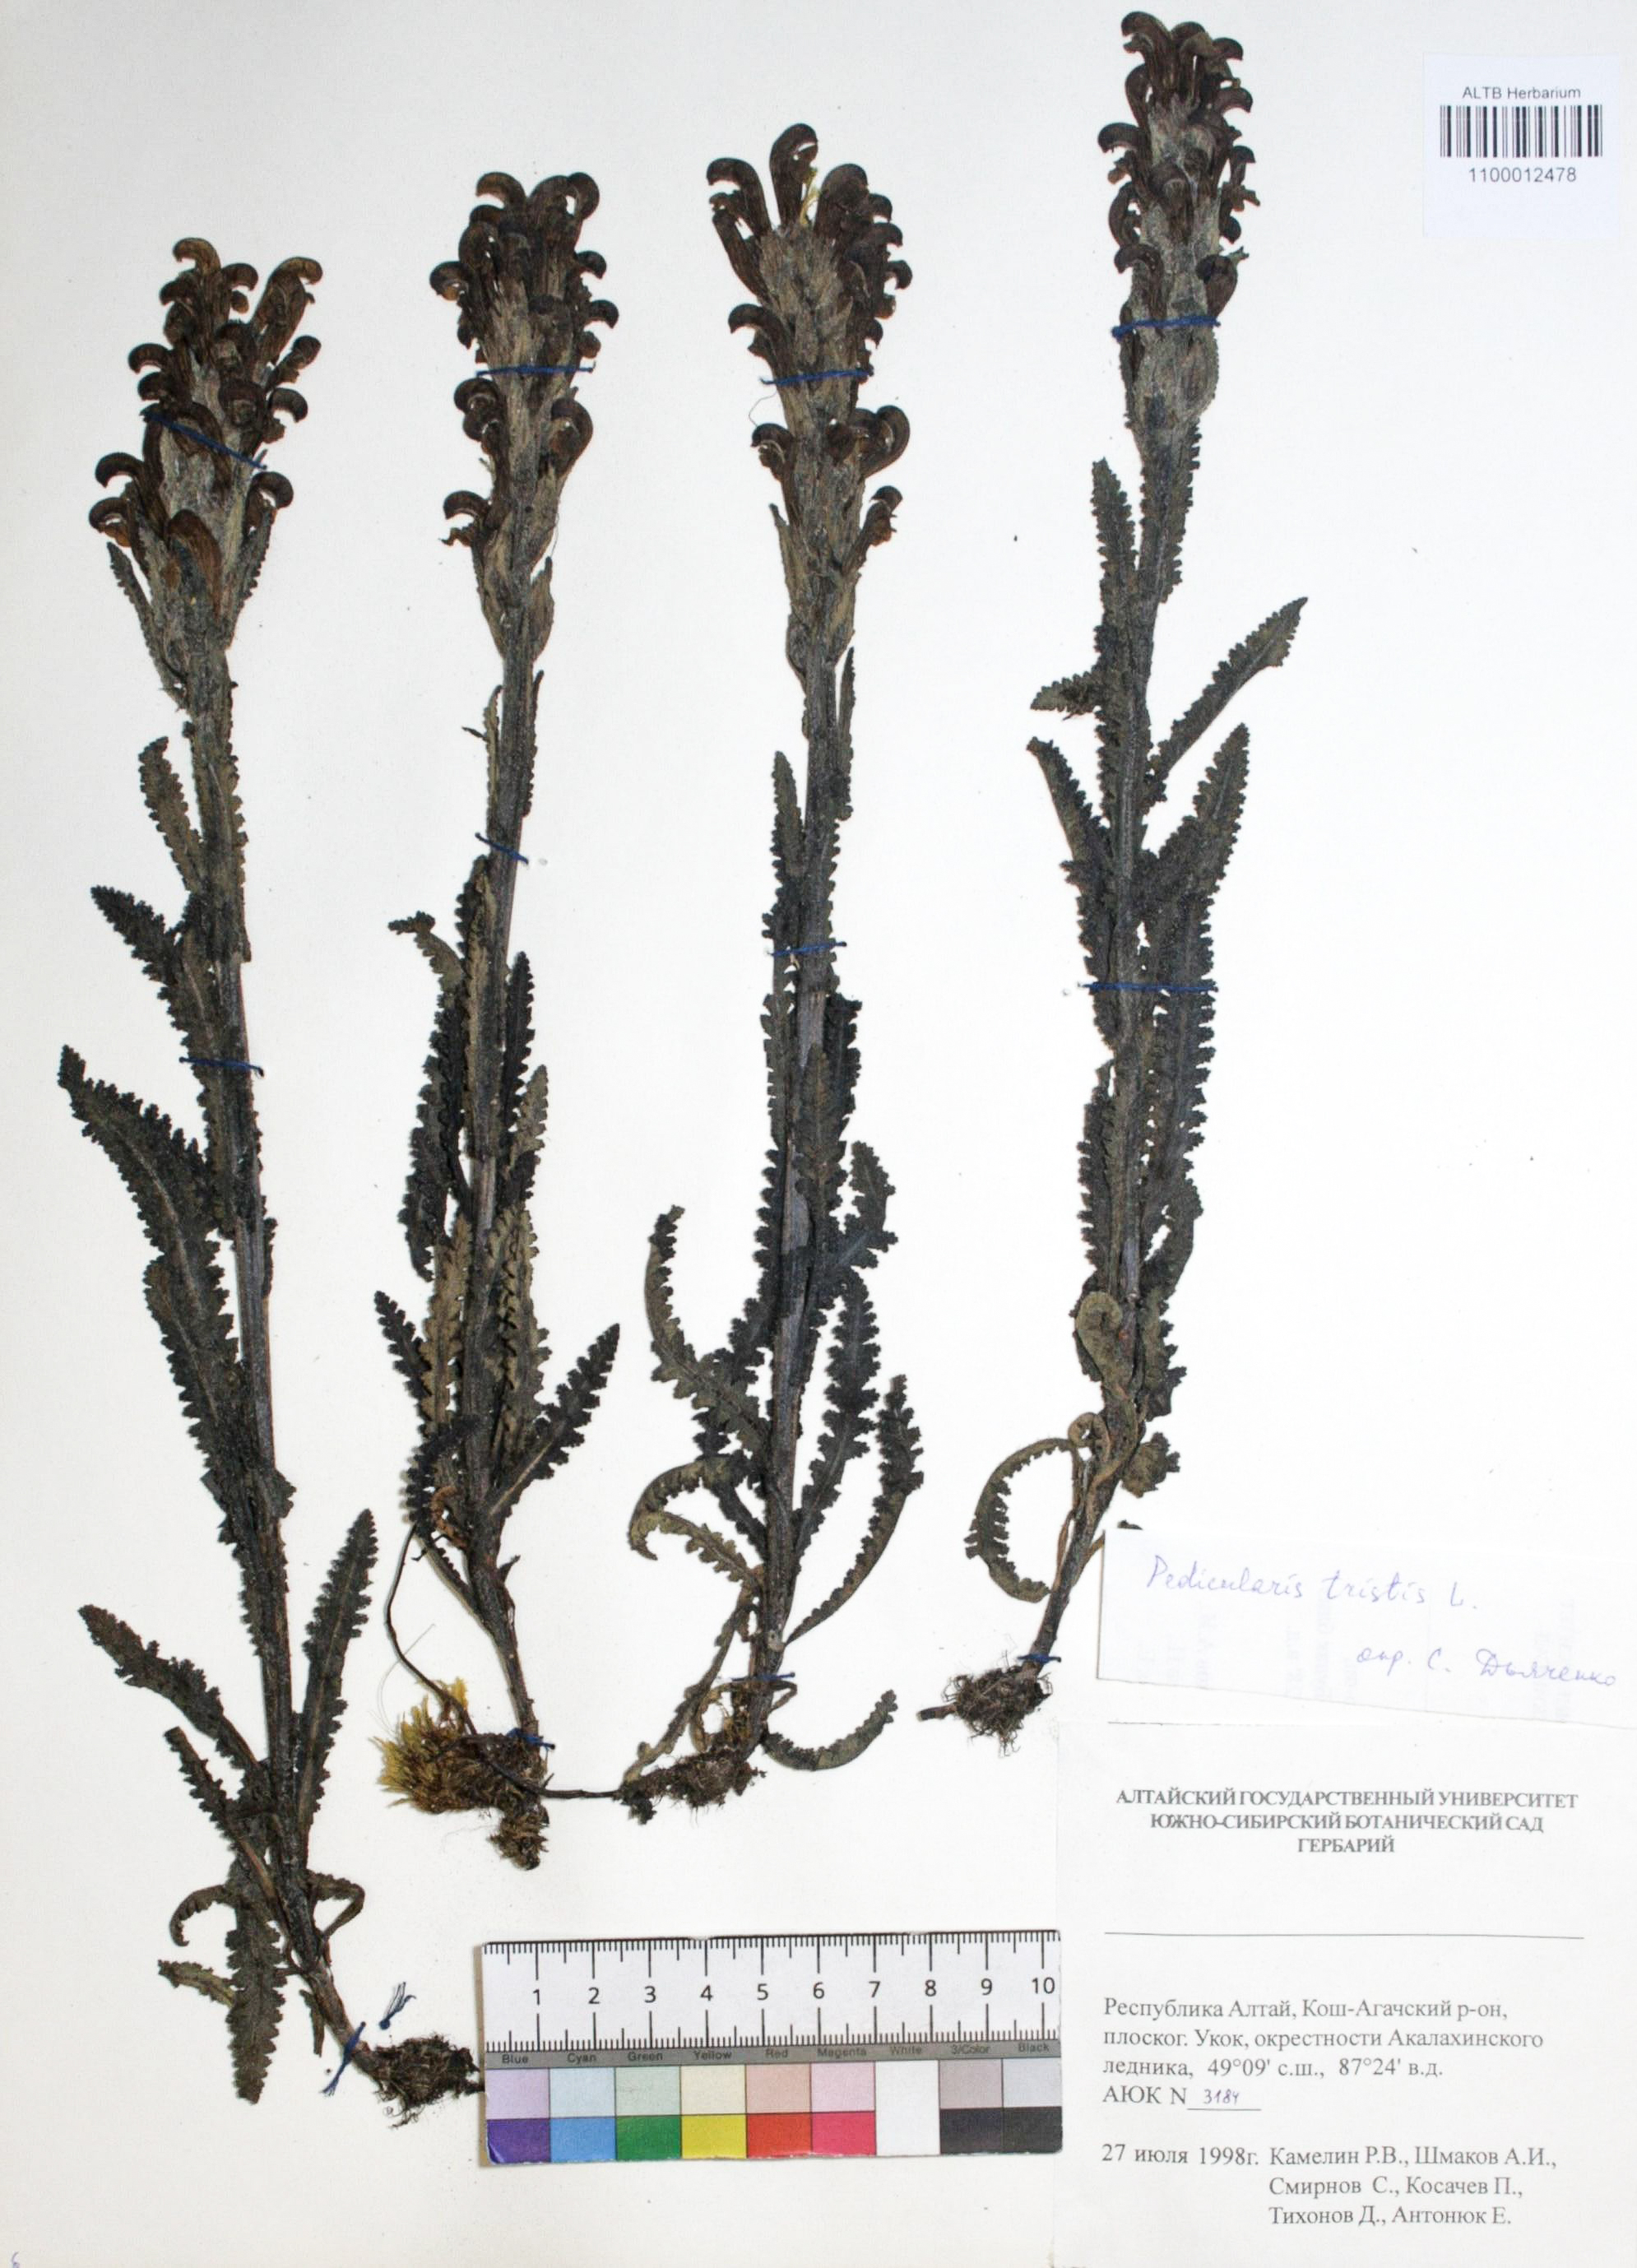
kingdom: Plantae
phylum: Tracheophyta
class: Magnoliopsida
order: Lamiales
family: Orobanchaceae
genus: Pedicularis
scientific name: Pedicularis tristis
